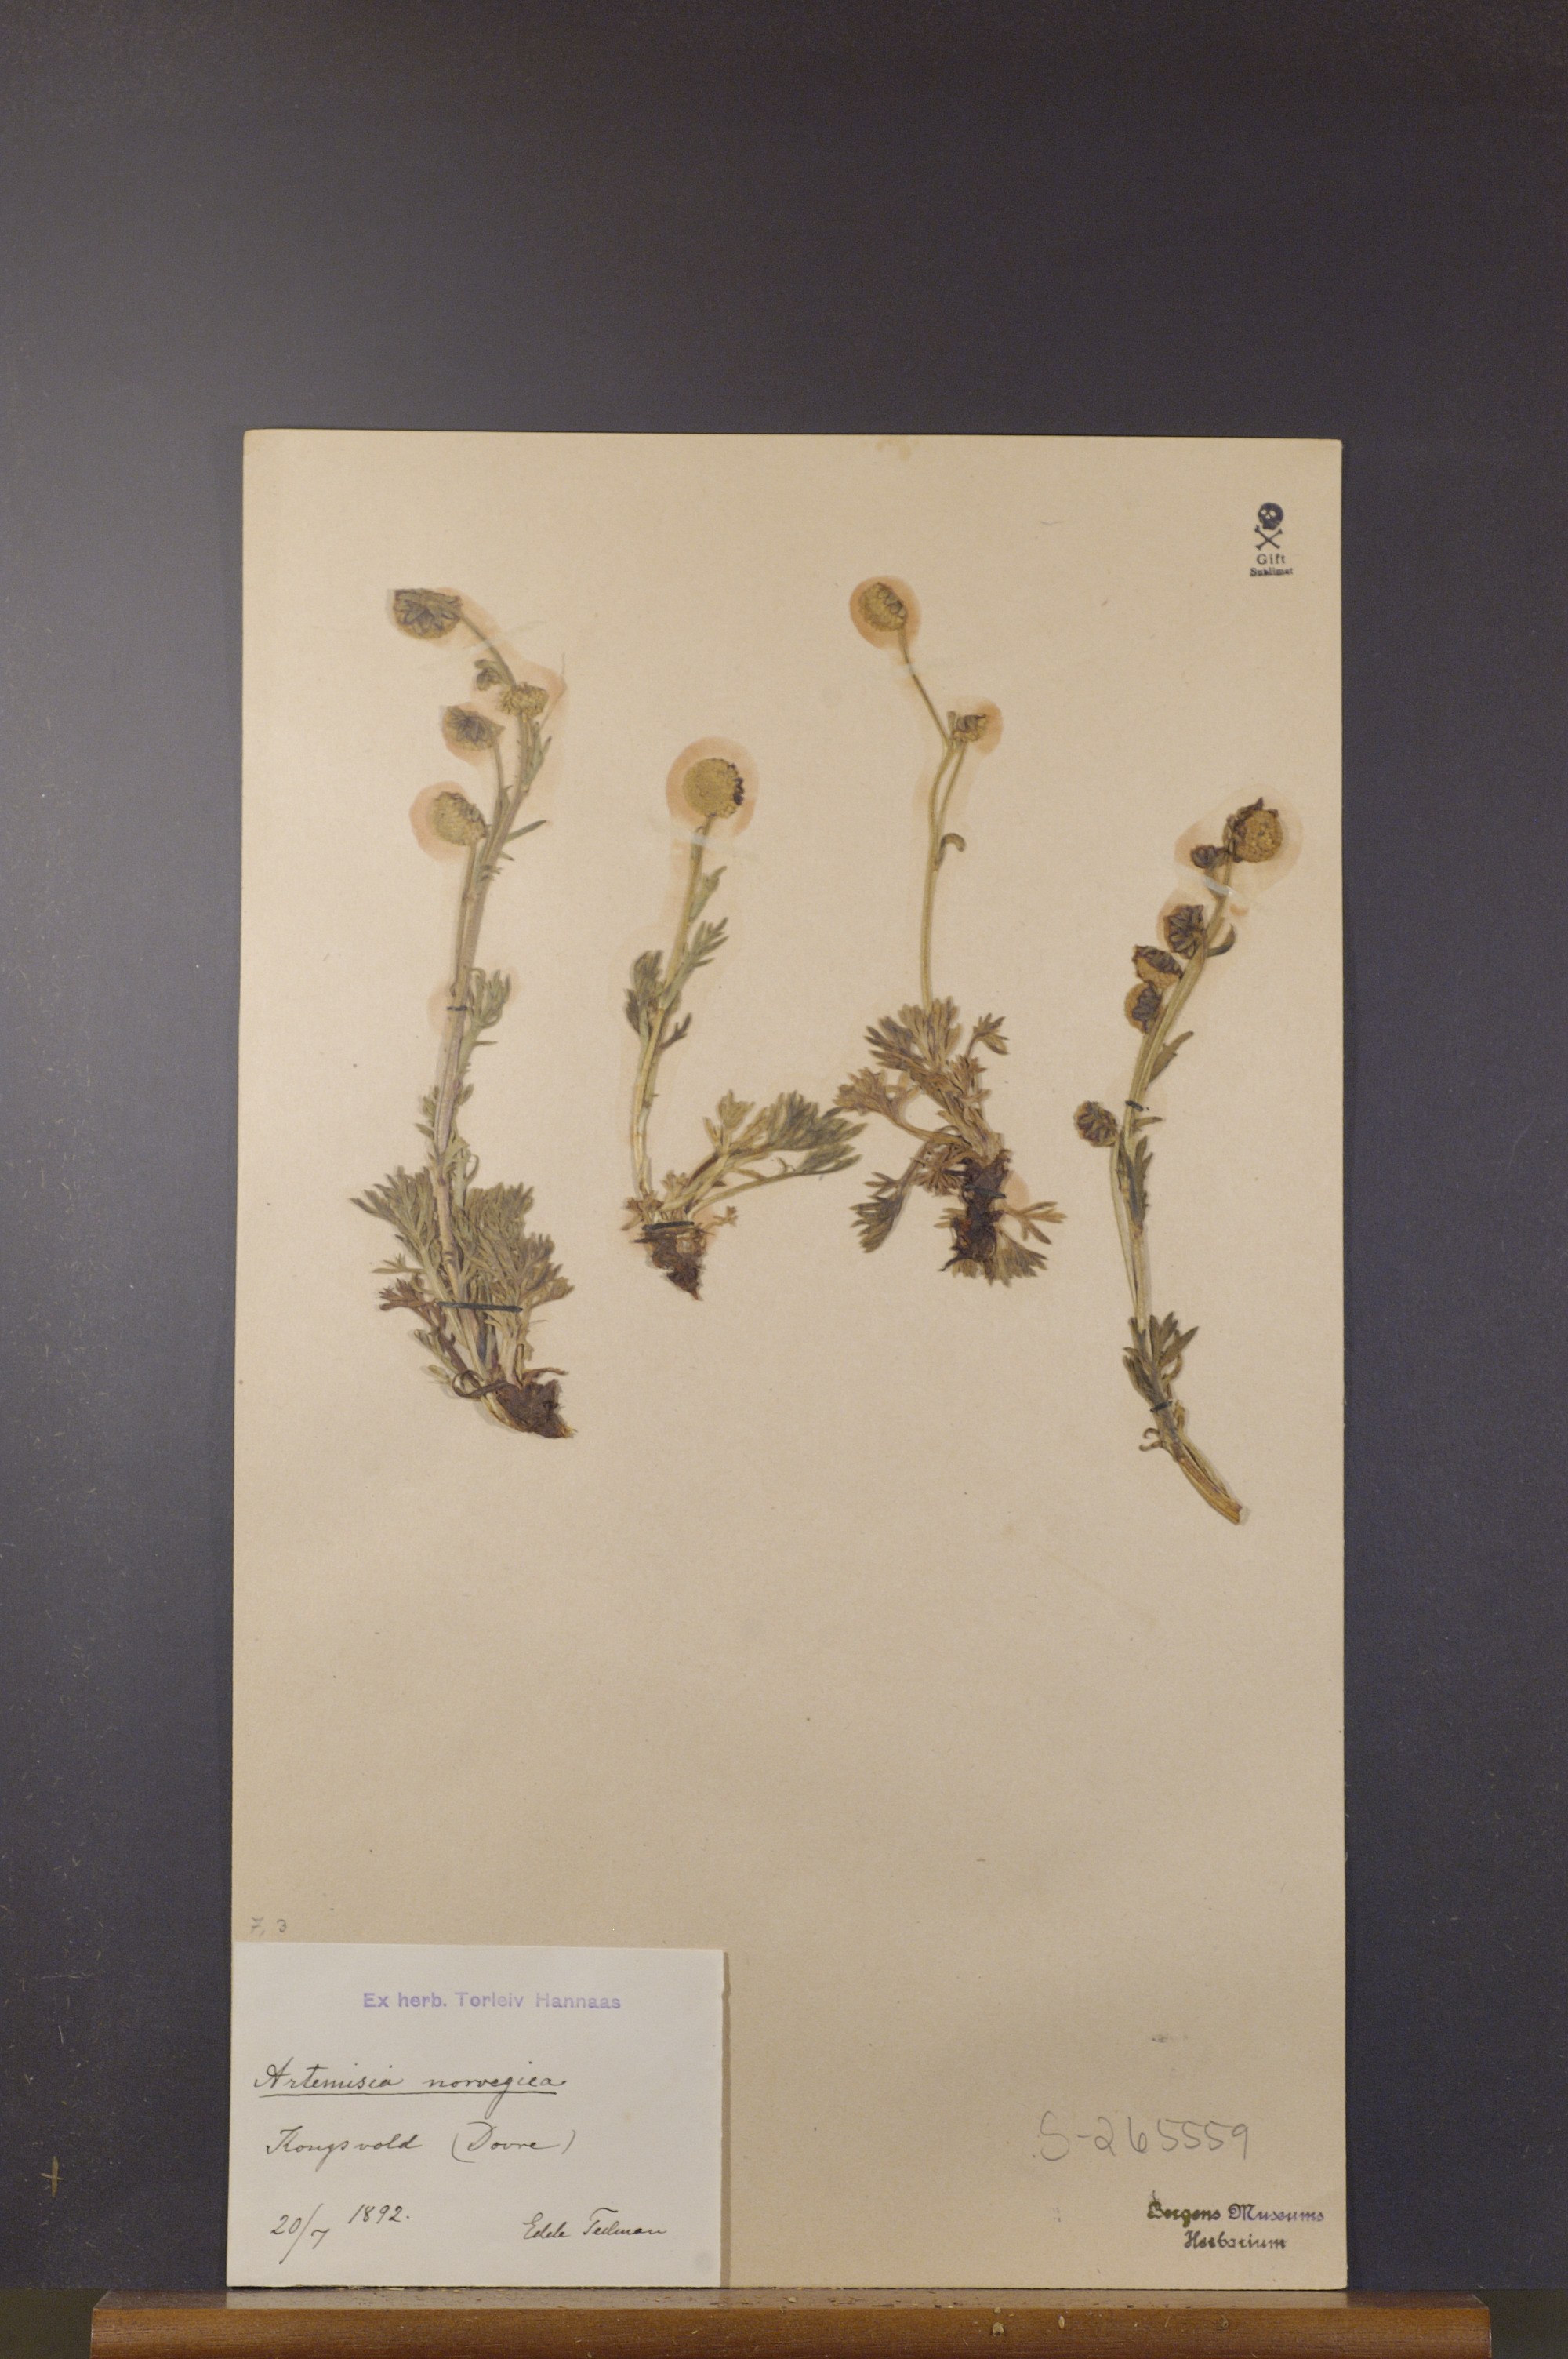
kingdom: Plantae
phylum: Tracheophyta
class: Magnoliopsida
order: Asterales
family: Asteraceae
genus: Artemisia
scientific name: Artemisia norvegica
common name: Norwegian mugwort
